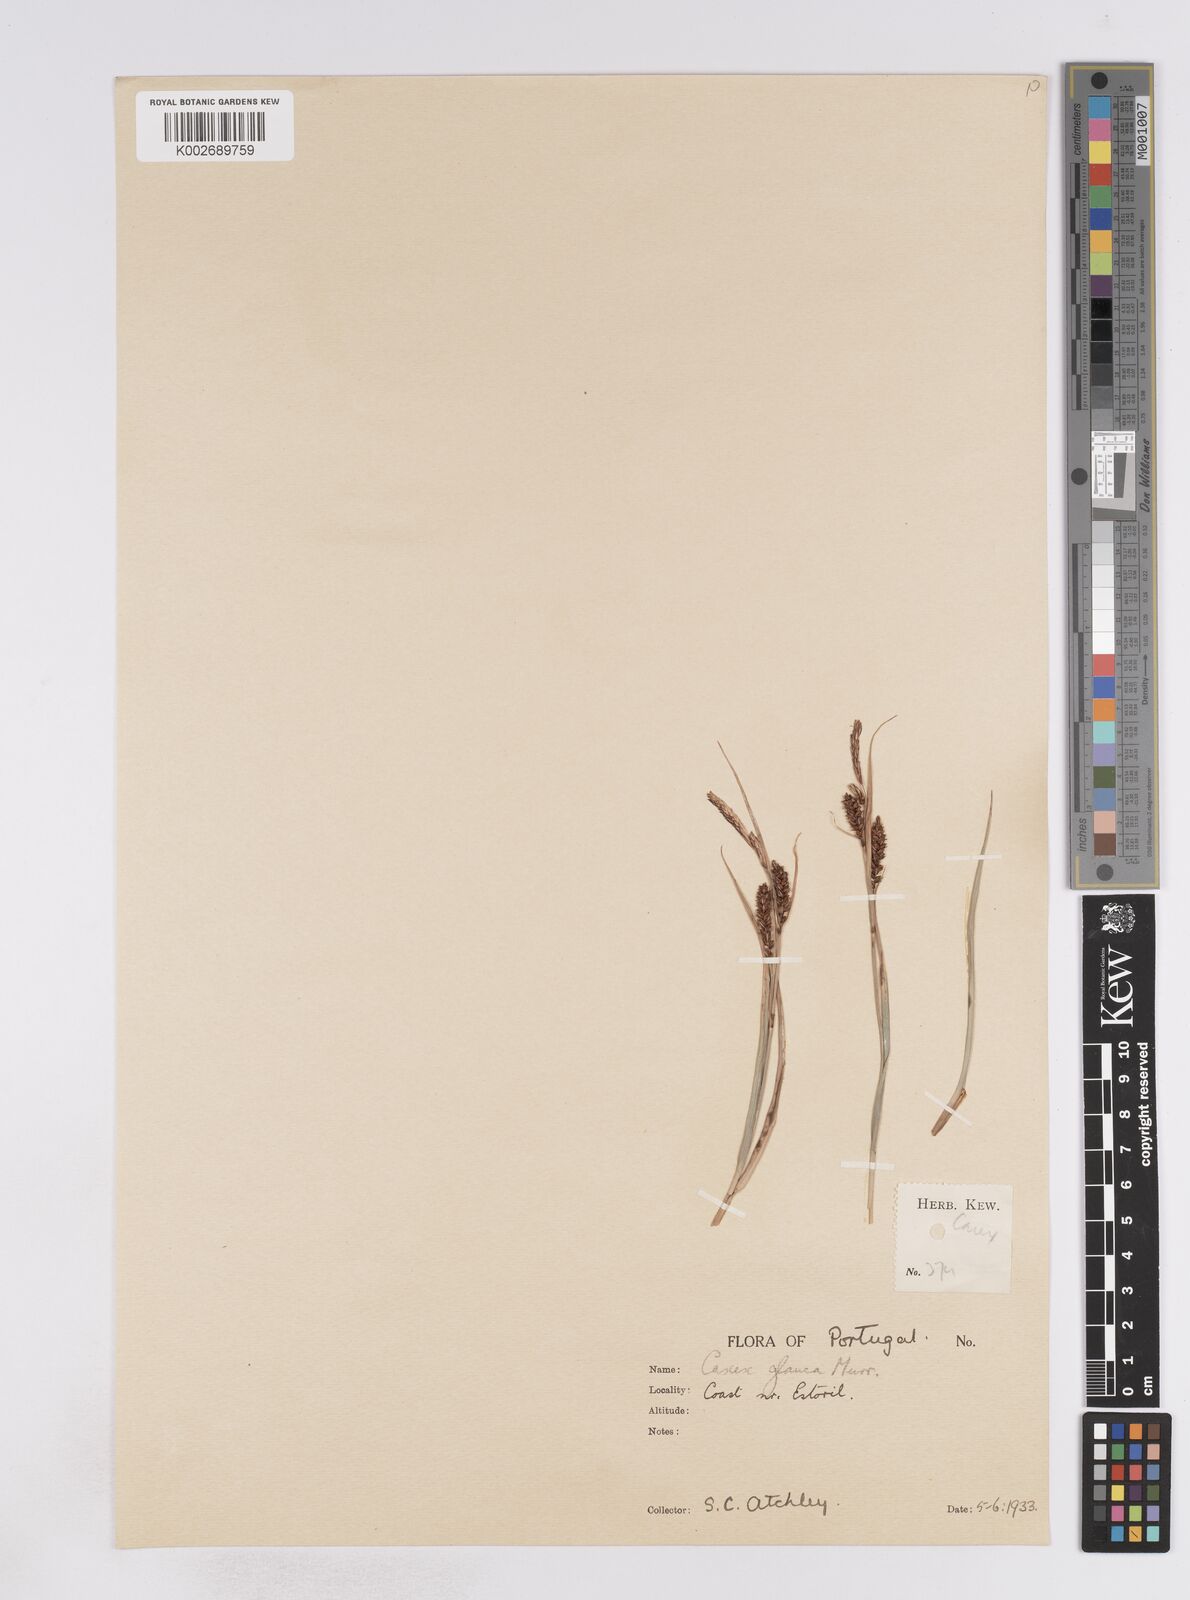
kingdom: Plantae
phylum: Tracheophyta
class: Liliopsida
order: Poales
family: Cyperaceae
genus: Carex
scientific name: Carex flacca
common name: Glaucous sedge
